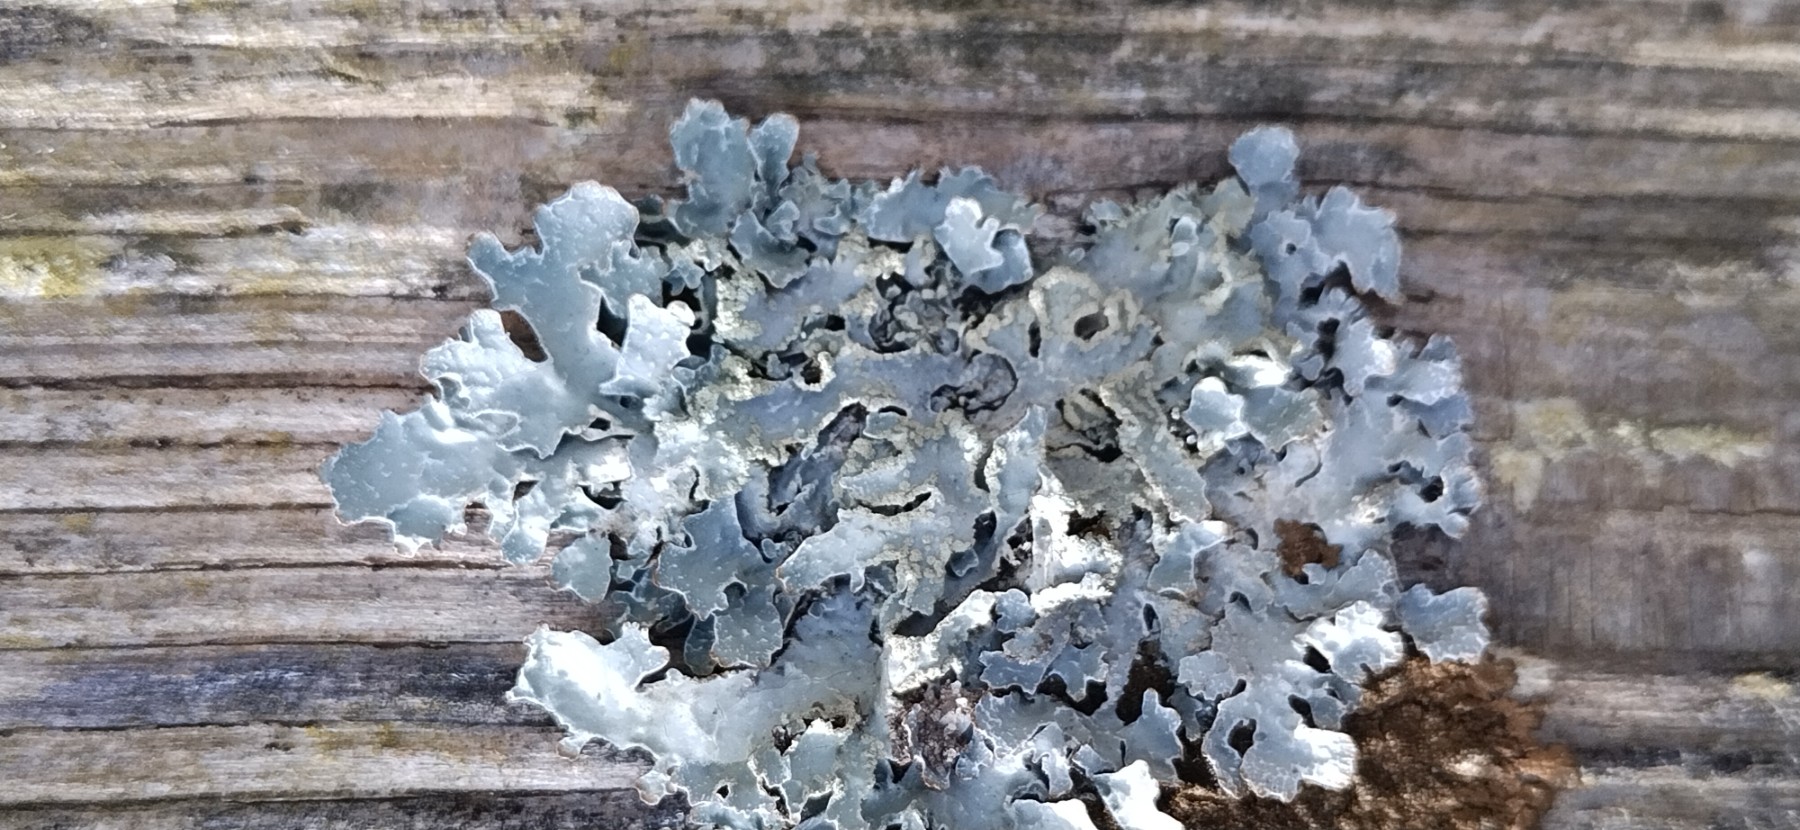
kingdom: Fungi
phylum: Ascomycota
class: Lecanoromycetes
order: Lecanorales
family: Parmeliaceae
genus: Parmelia
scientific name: Parmelia sulcata
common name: rynket skållav
